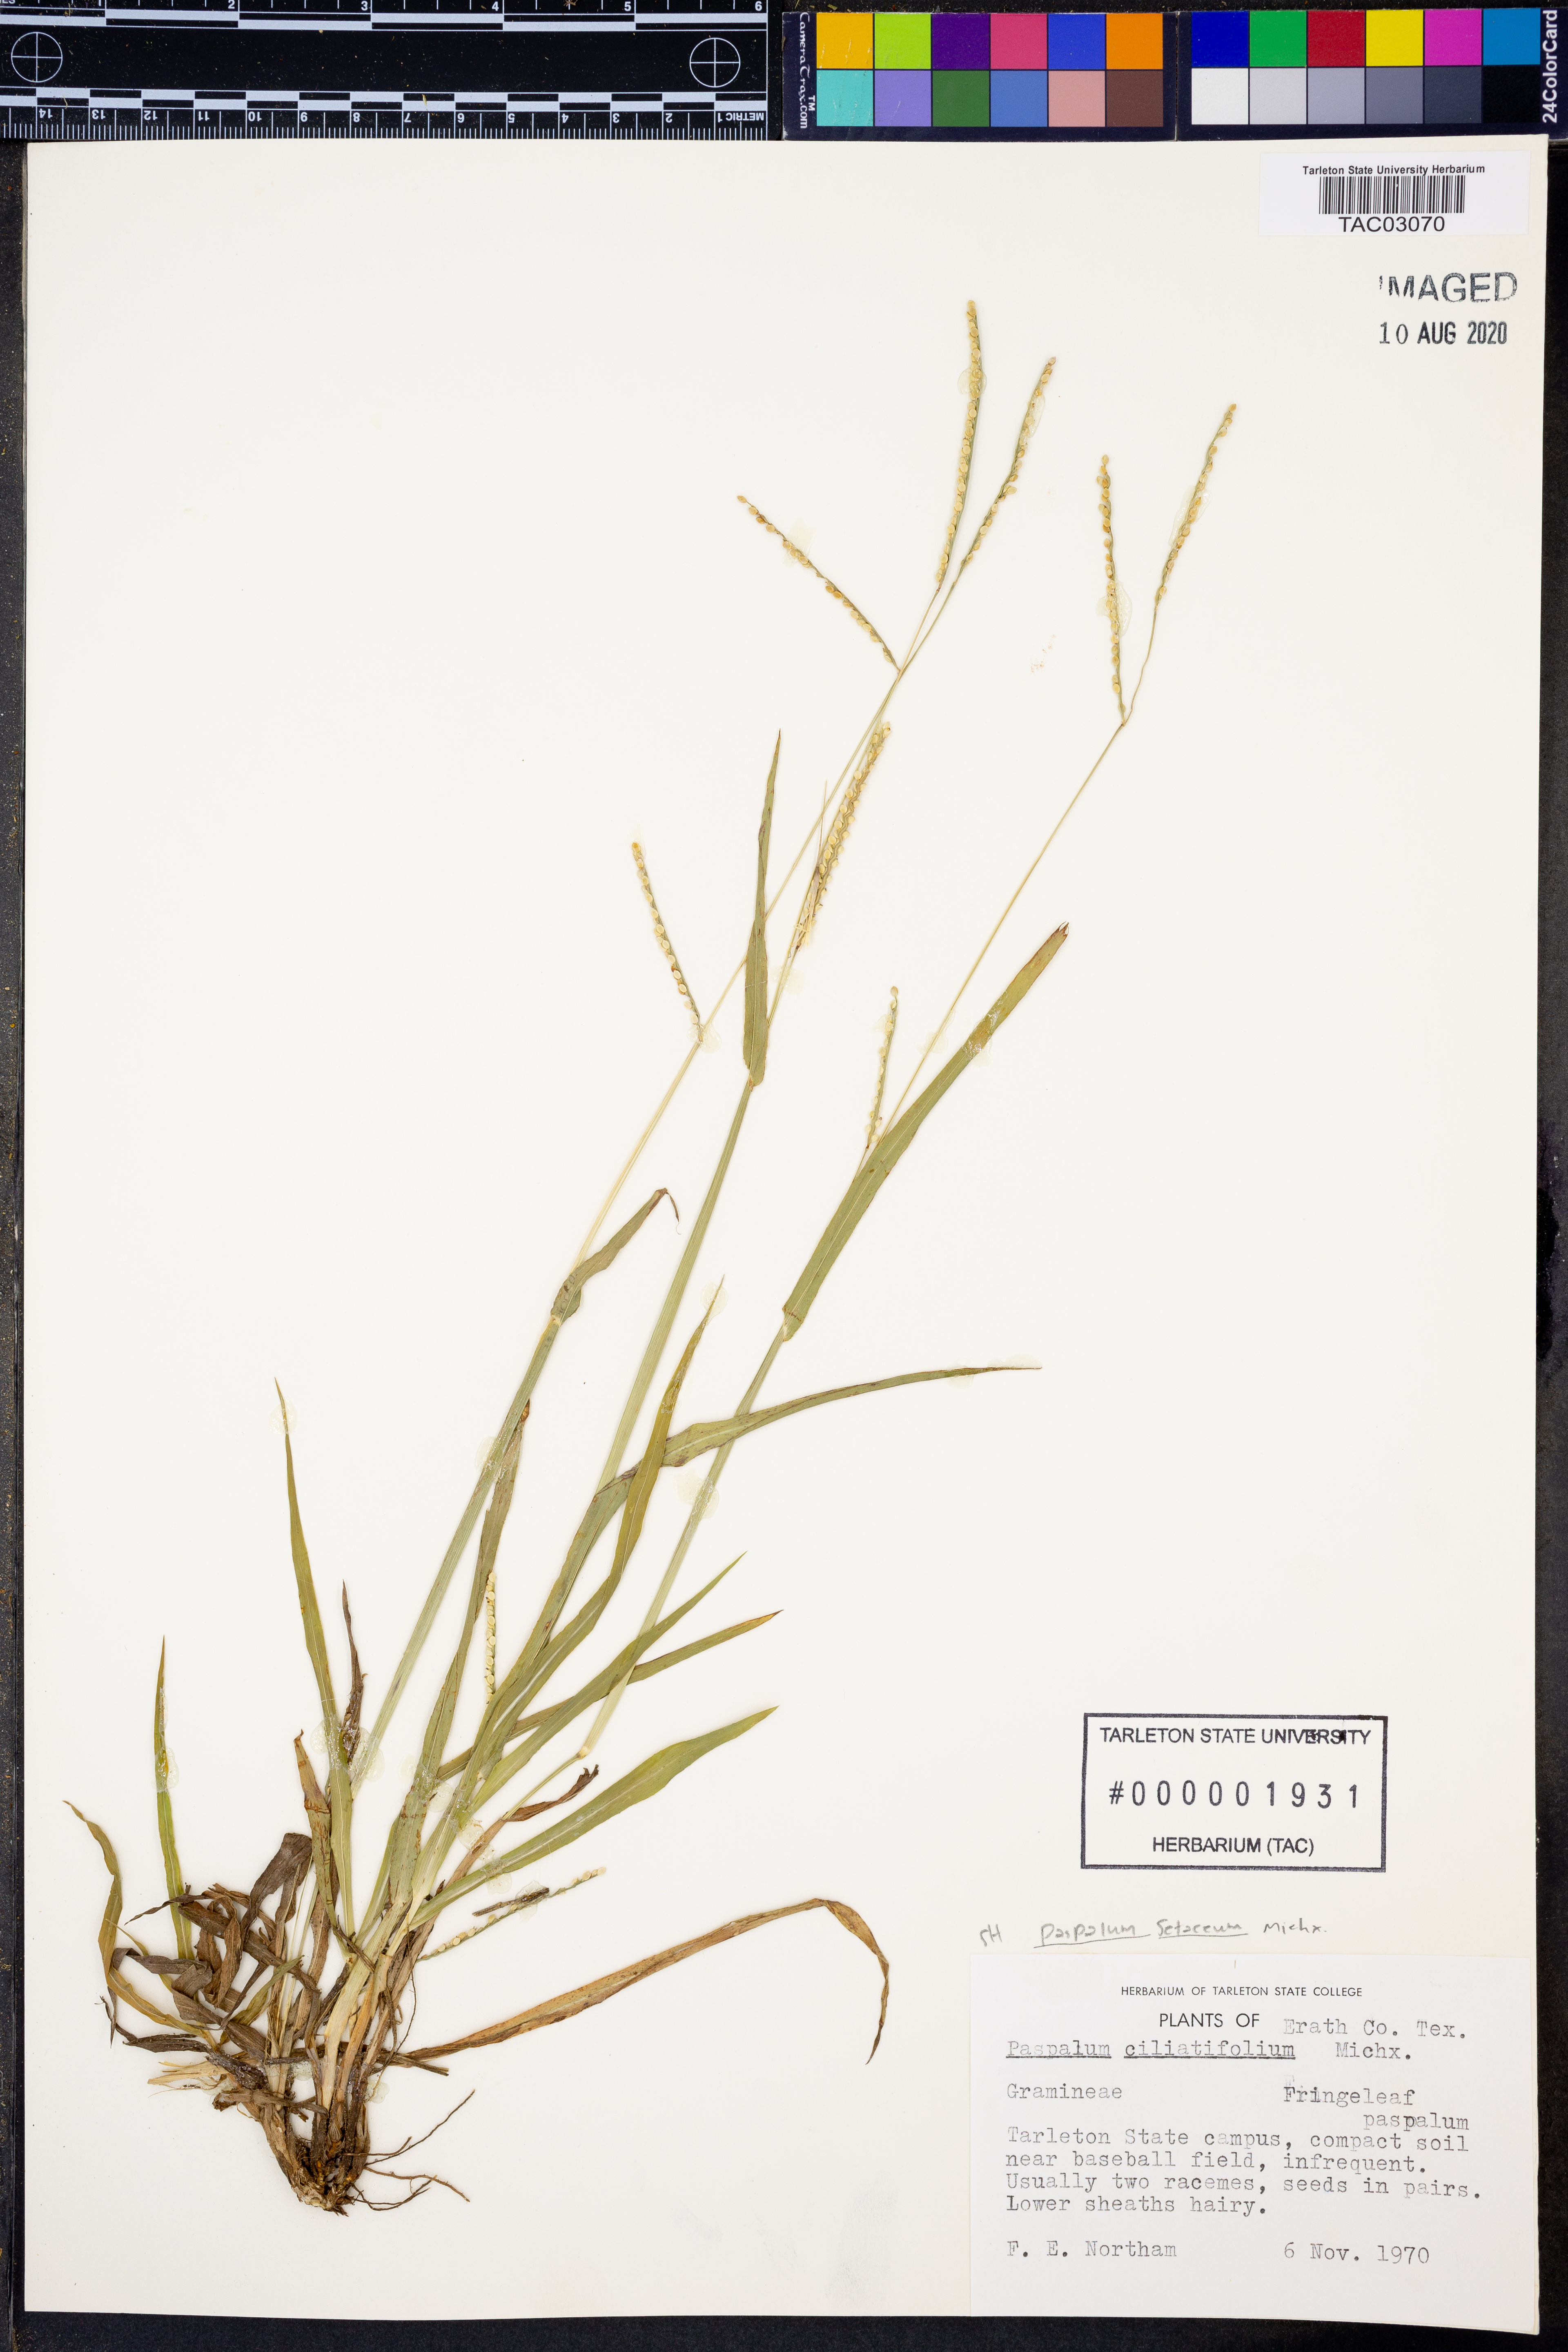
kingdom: Plantae
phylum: Tracheophyta
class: Liliopsida
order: Poales
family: Poaceae
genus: Paspalum
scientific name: Paspalum setaceum
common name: Slender paspalum
